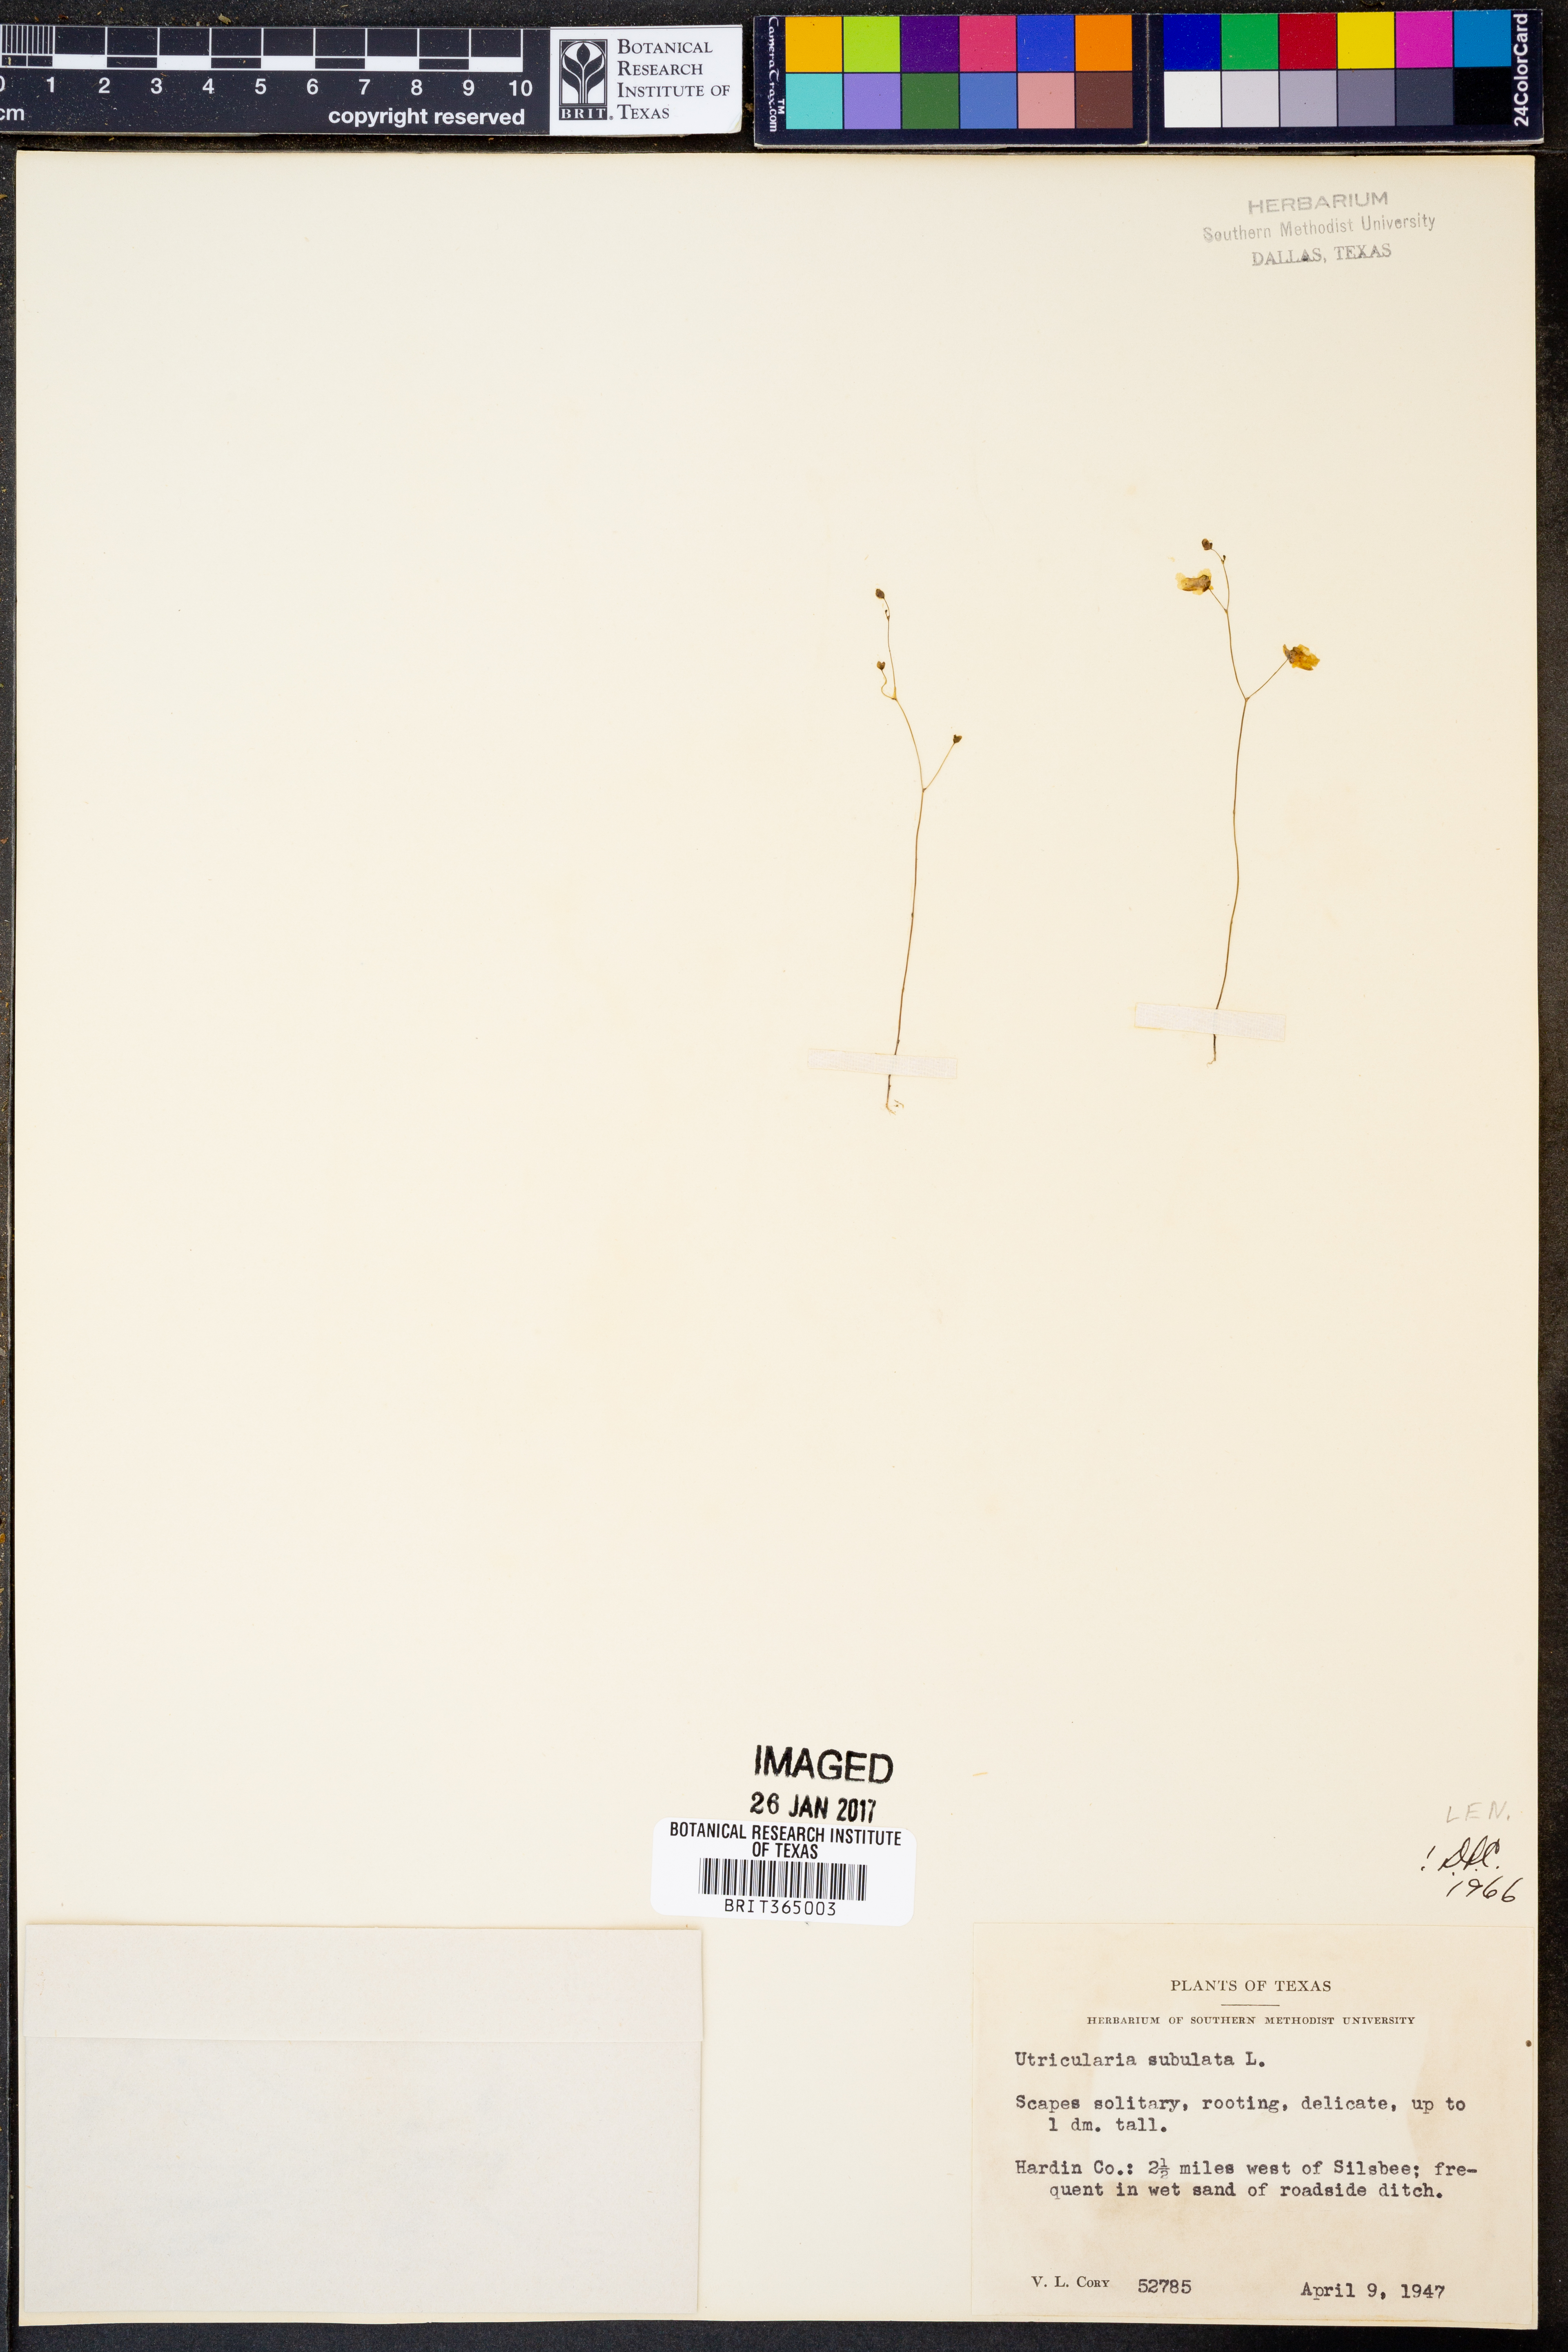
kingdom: Plantae
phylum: Tracheophyta
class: Magnoliopsida
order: Lamiales
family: Lentibulariaceae
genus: Utricularia
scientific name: Utricularia subulata
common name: Tiny bladderwort
